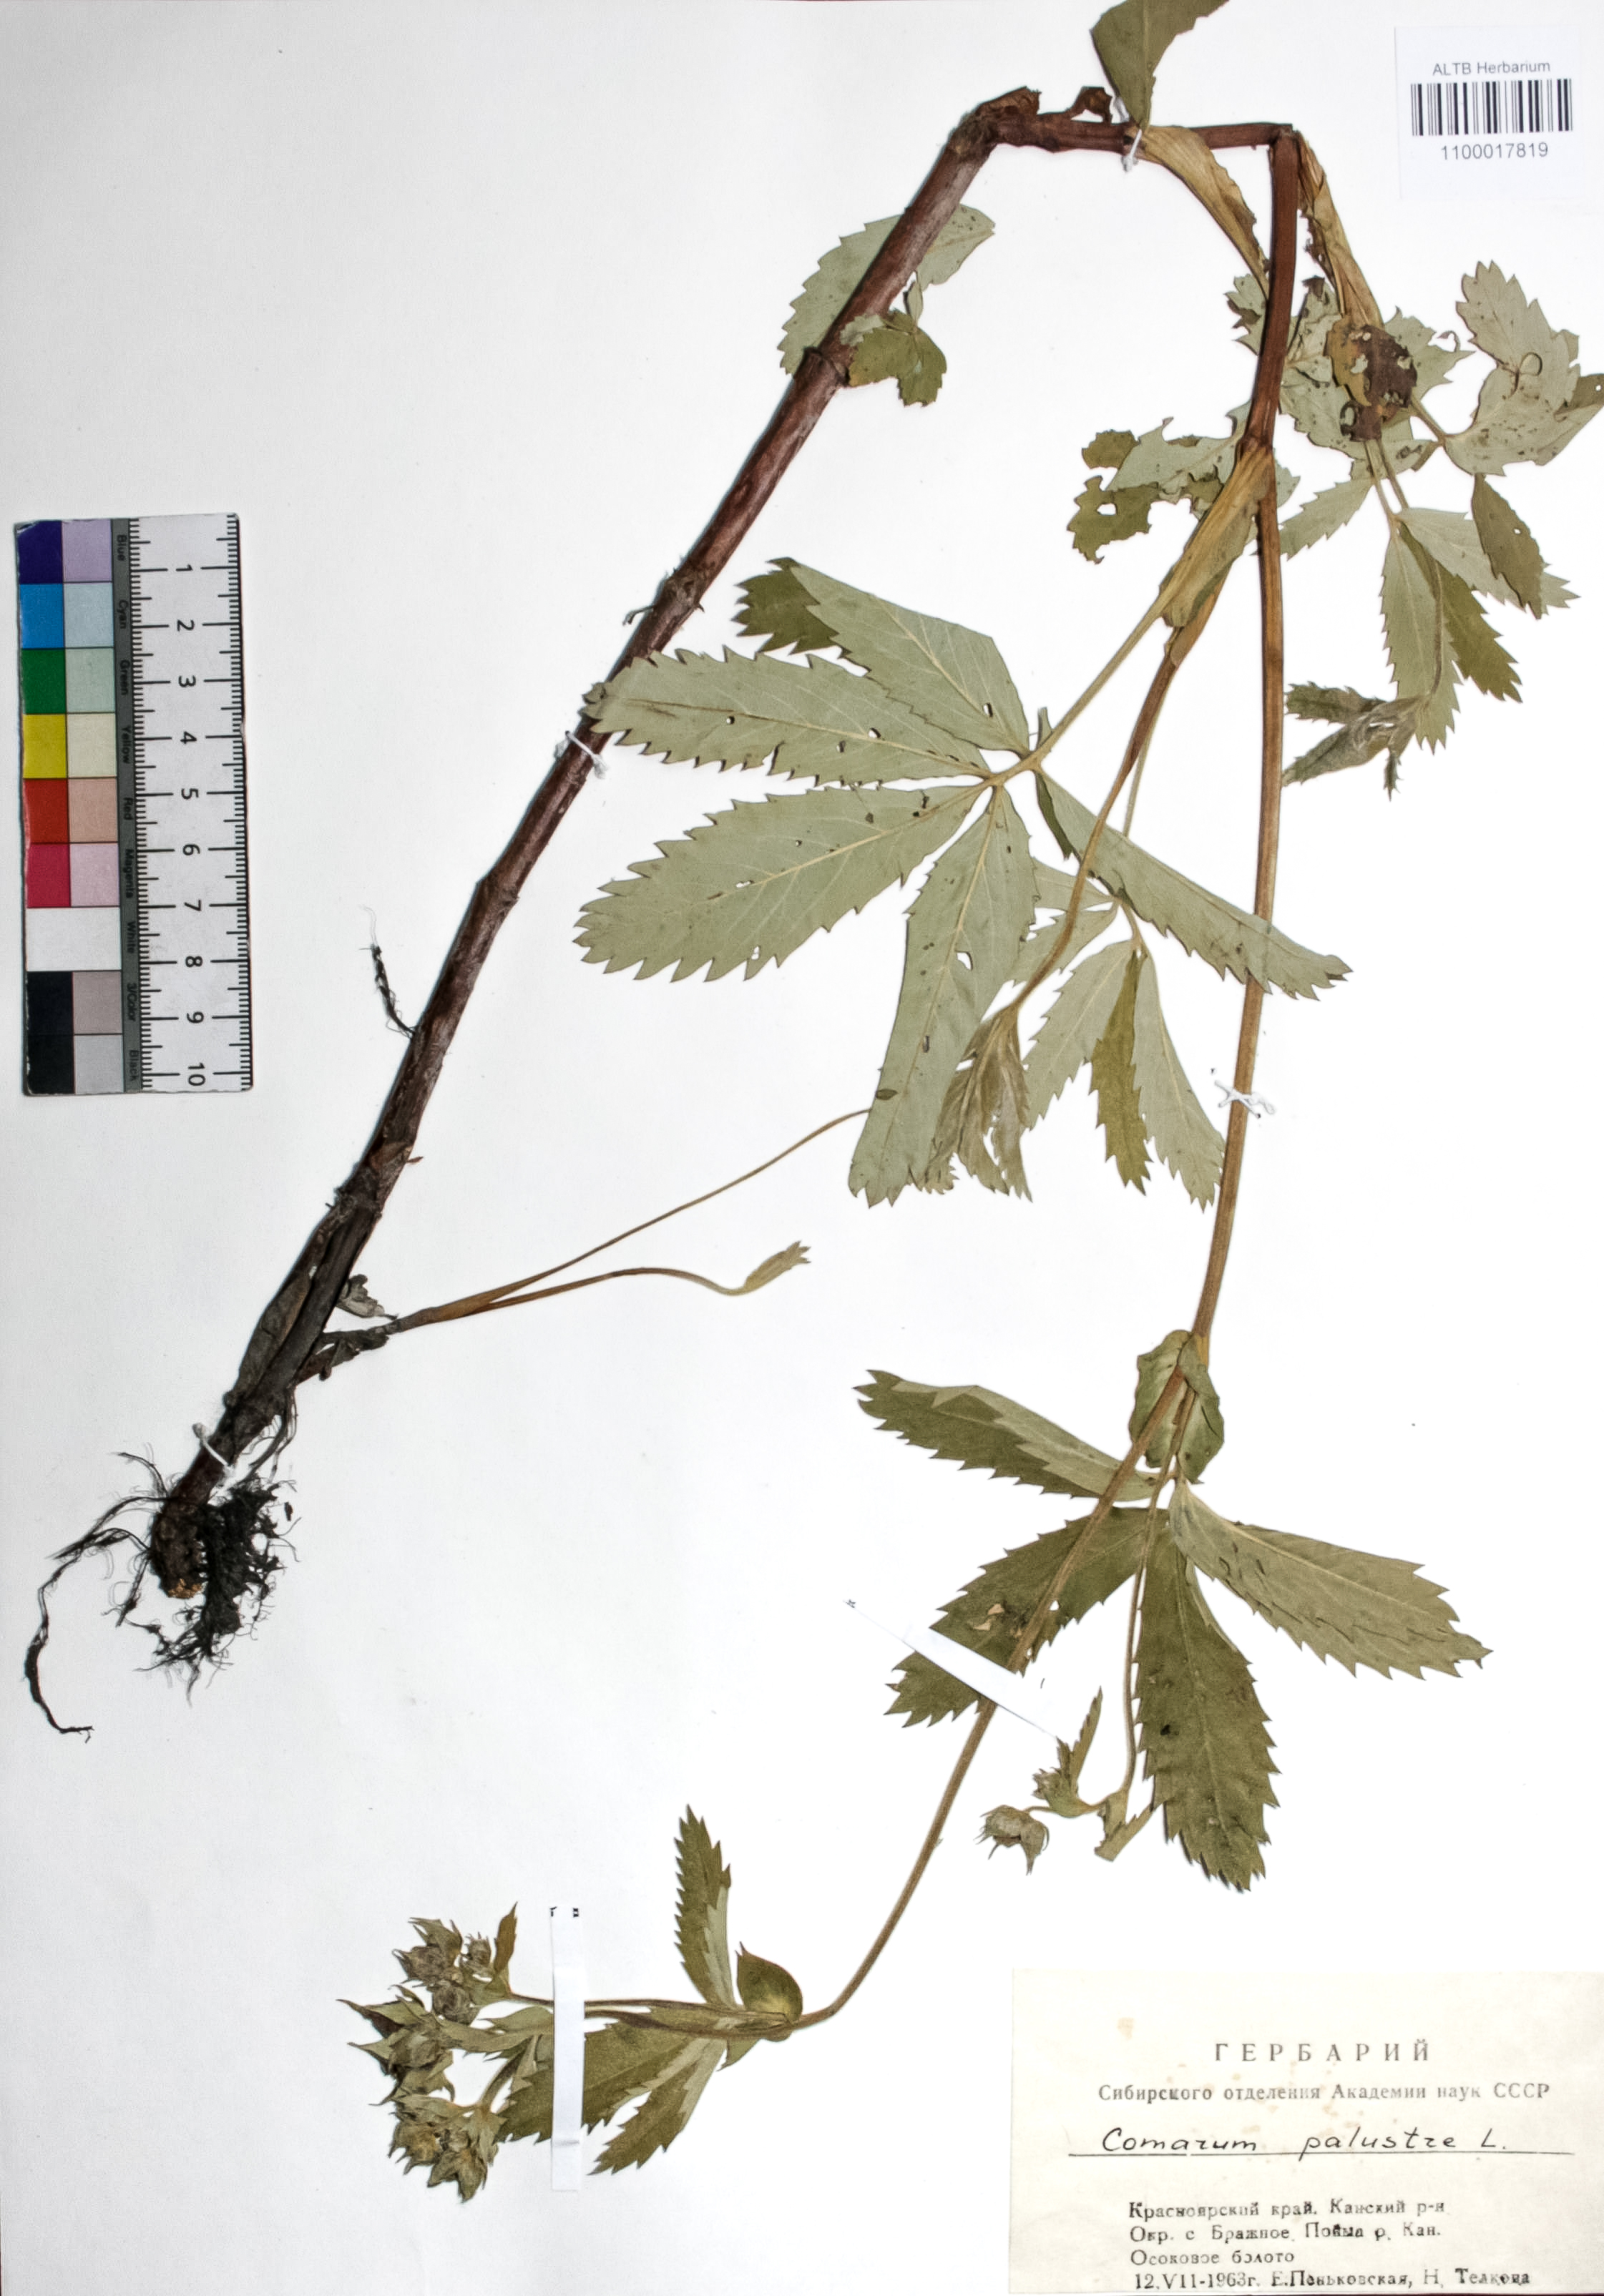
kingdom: Plantae
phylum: Tracheophyta
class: Magnoliopsida
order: Rosales
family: Rosaceae
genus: Comarum
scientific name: Comarum palustre
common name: Marsh cinquefoil
